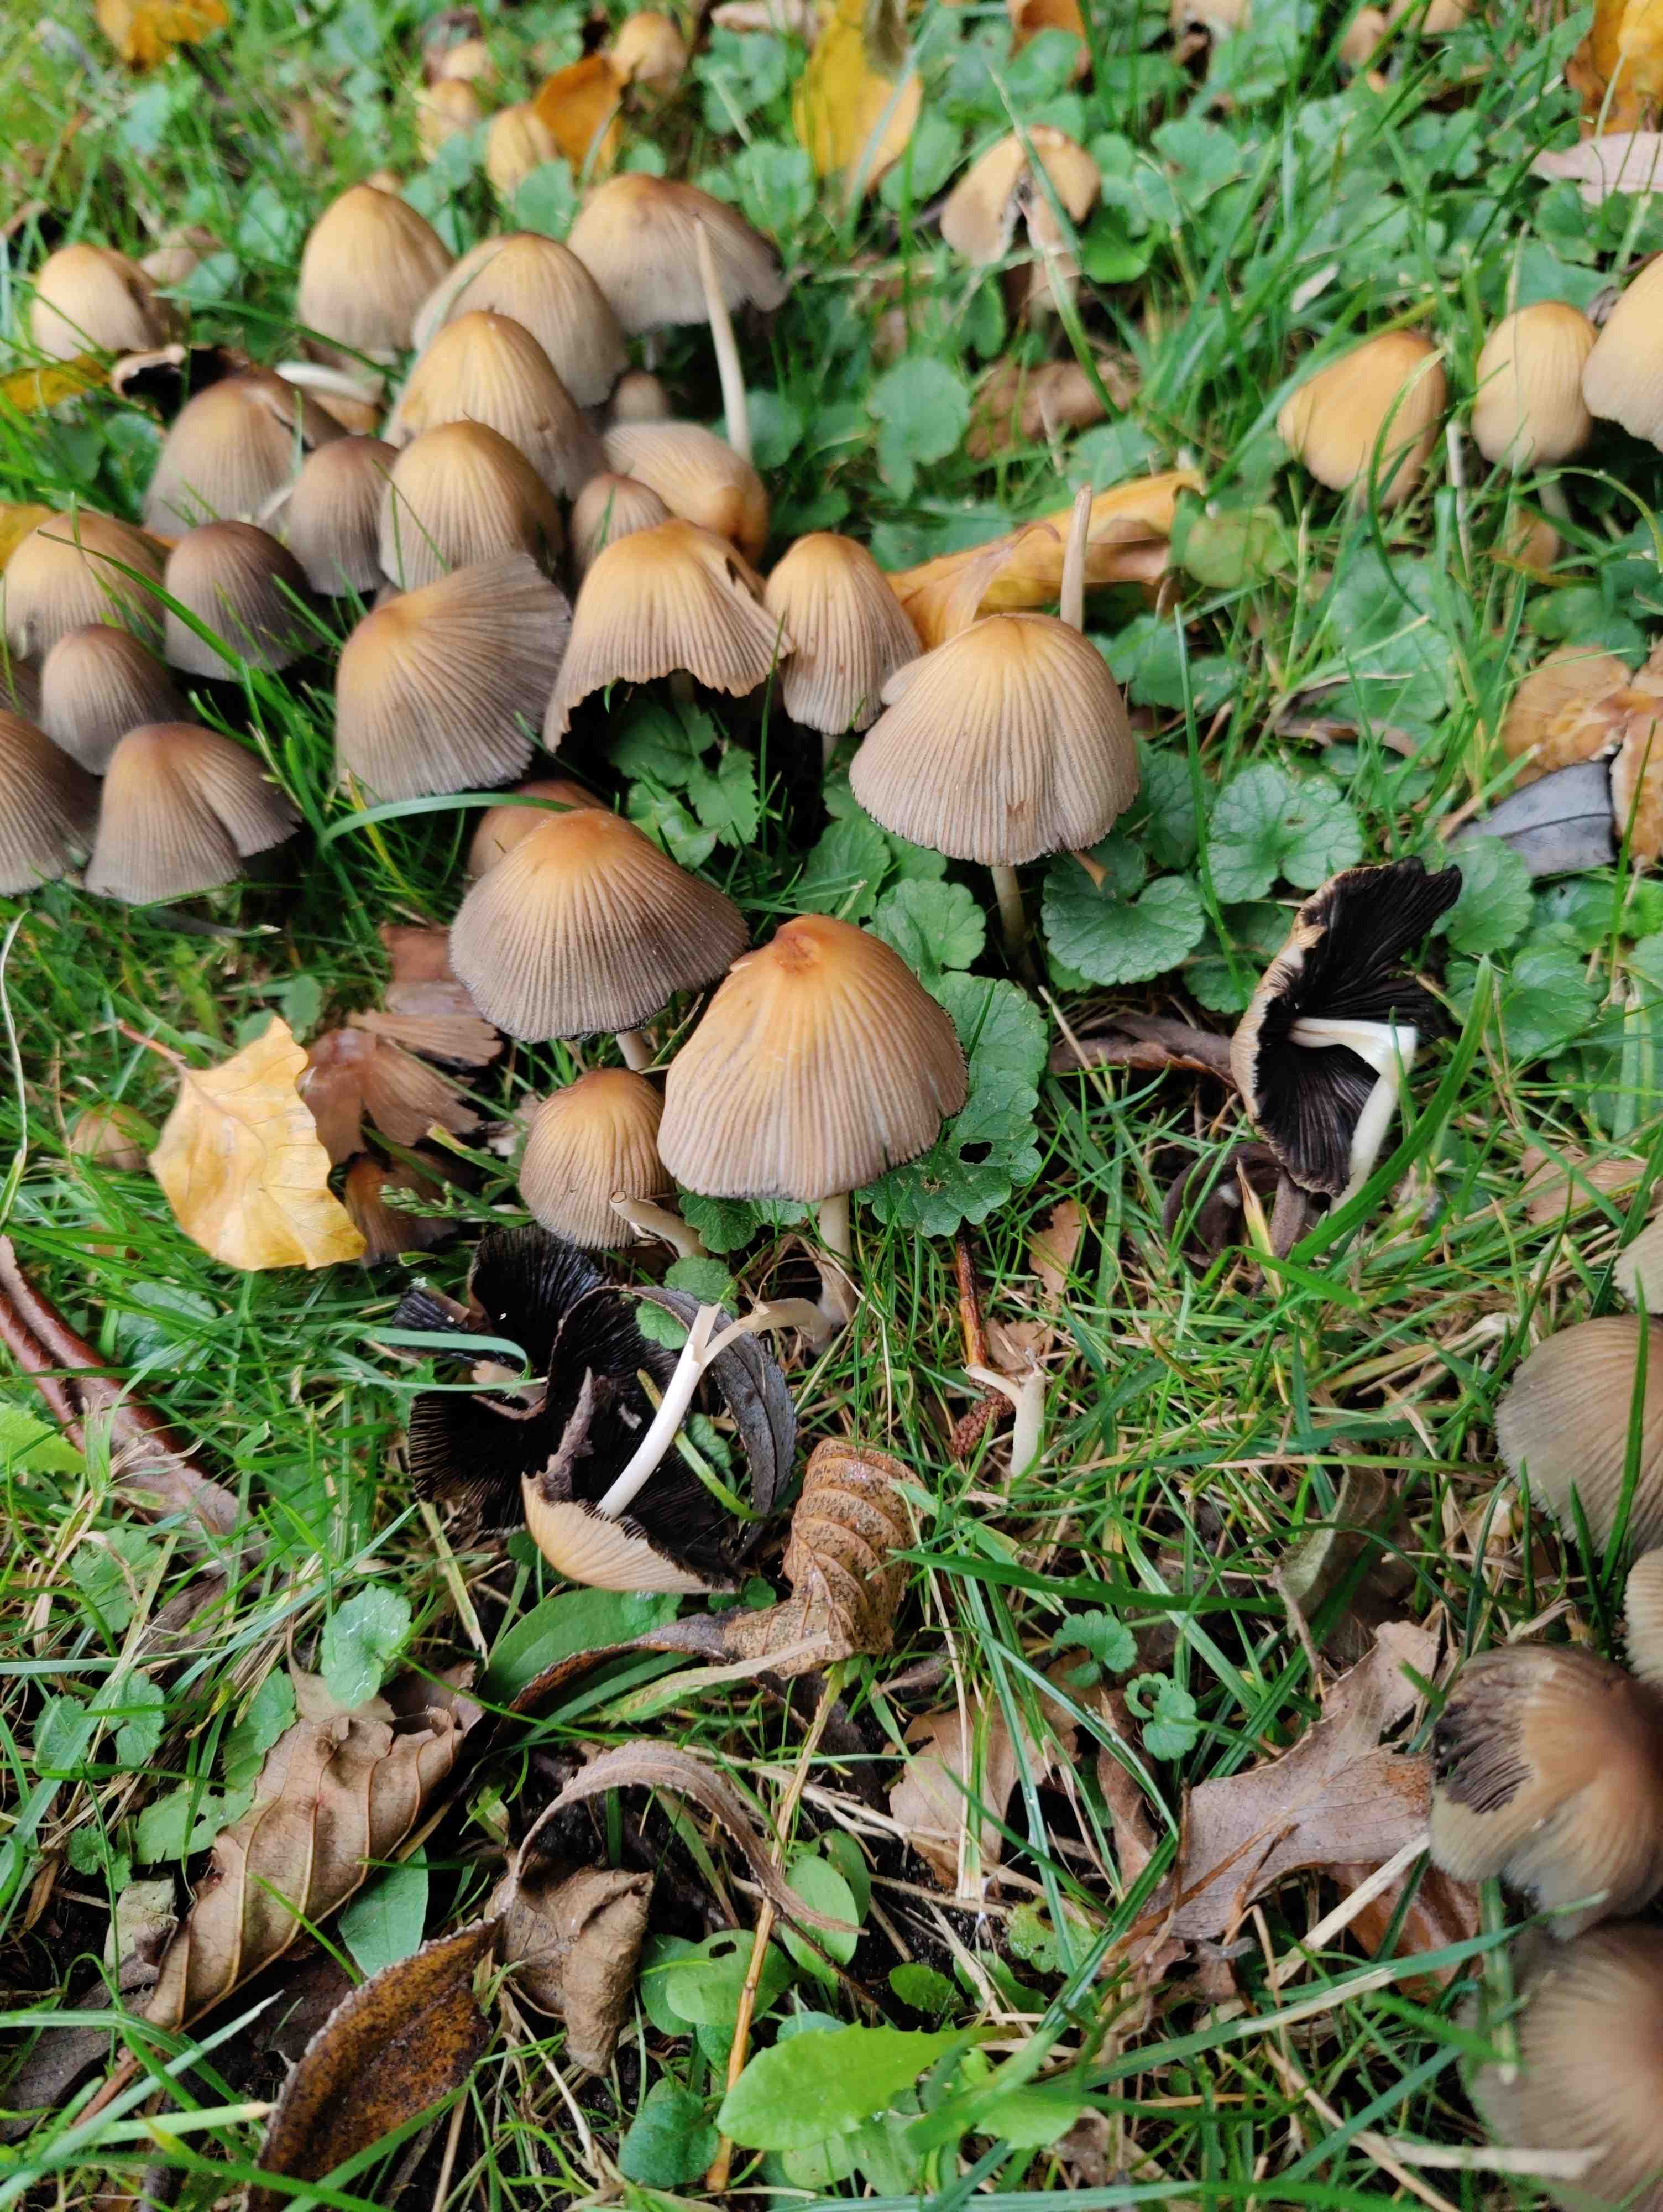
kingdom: Fungi
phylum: Basidiomycota
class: Agaricomycetes
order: Agaricales
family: Psathyrellaceae
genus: Coprinellus
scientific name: Coprinellus micaceus
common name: glimmer-blækhat
